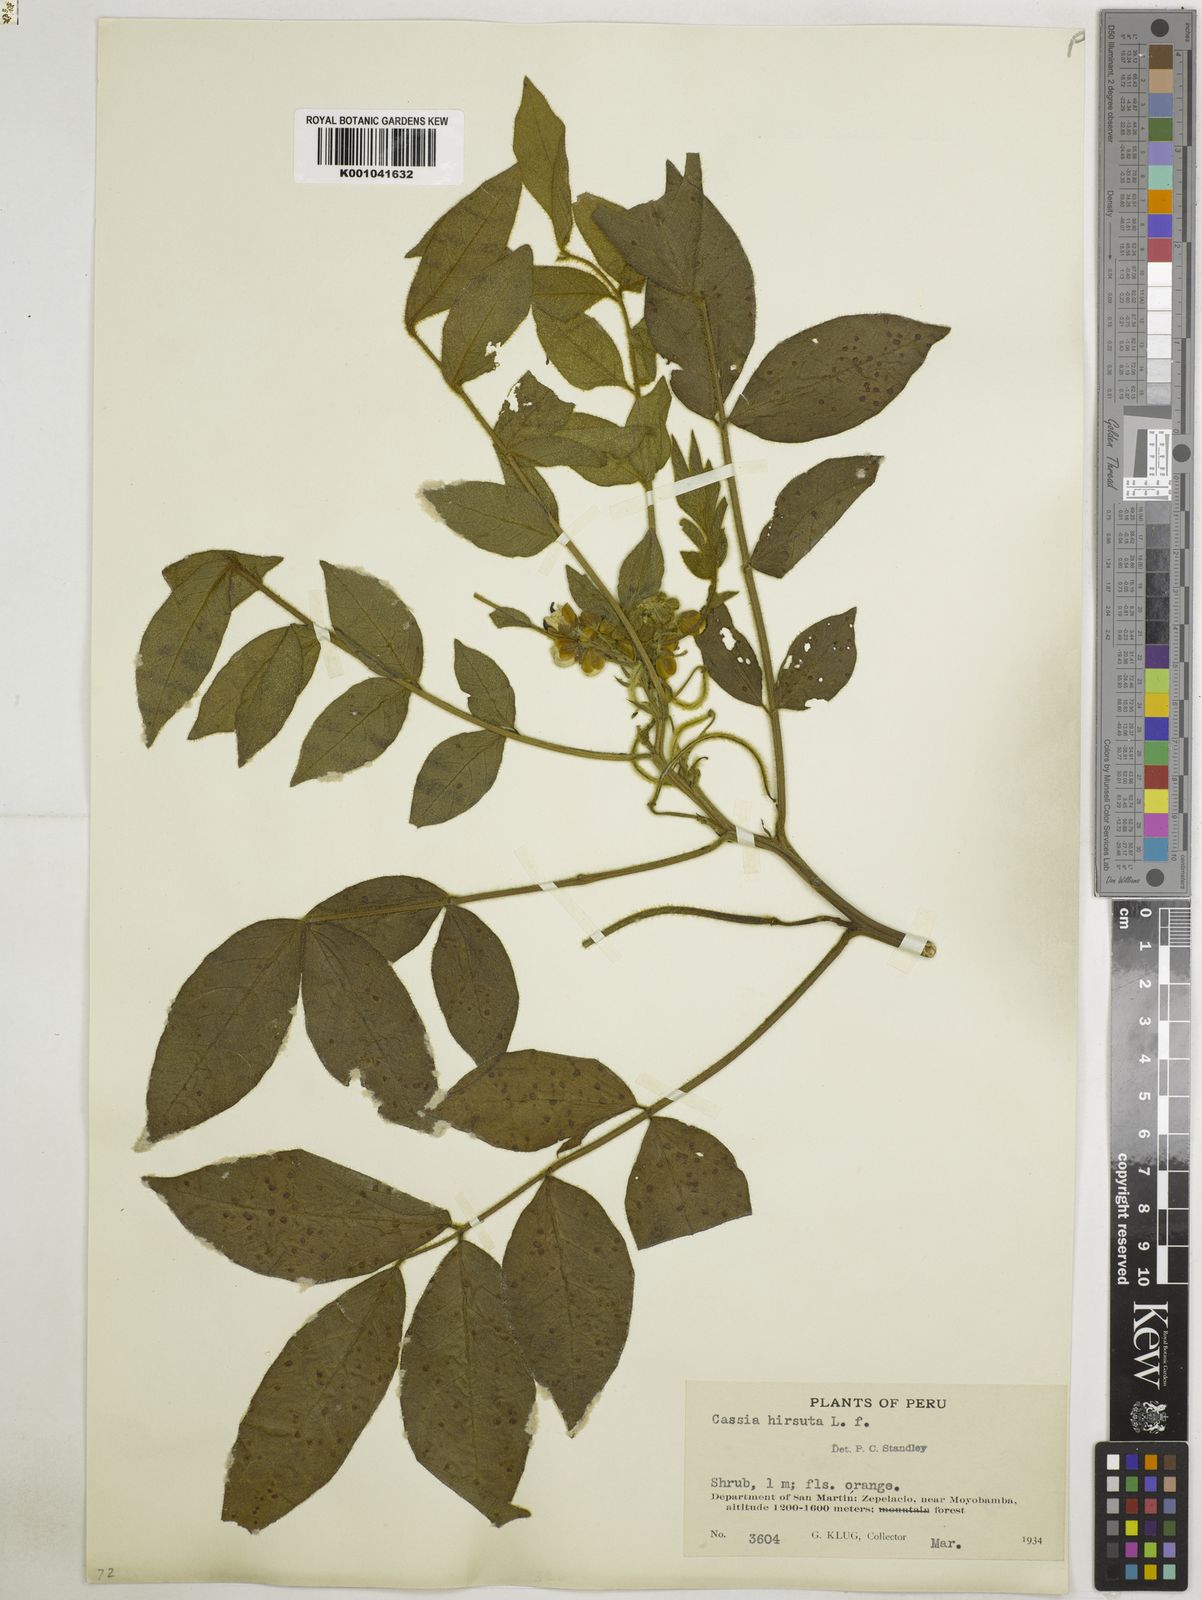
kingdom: Plantae
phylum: Tracheophyta
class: Magnoliopsida
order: Fabales
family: Fabaceae
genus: Senna
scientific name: Senna hirsuta
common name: Woolly senna
